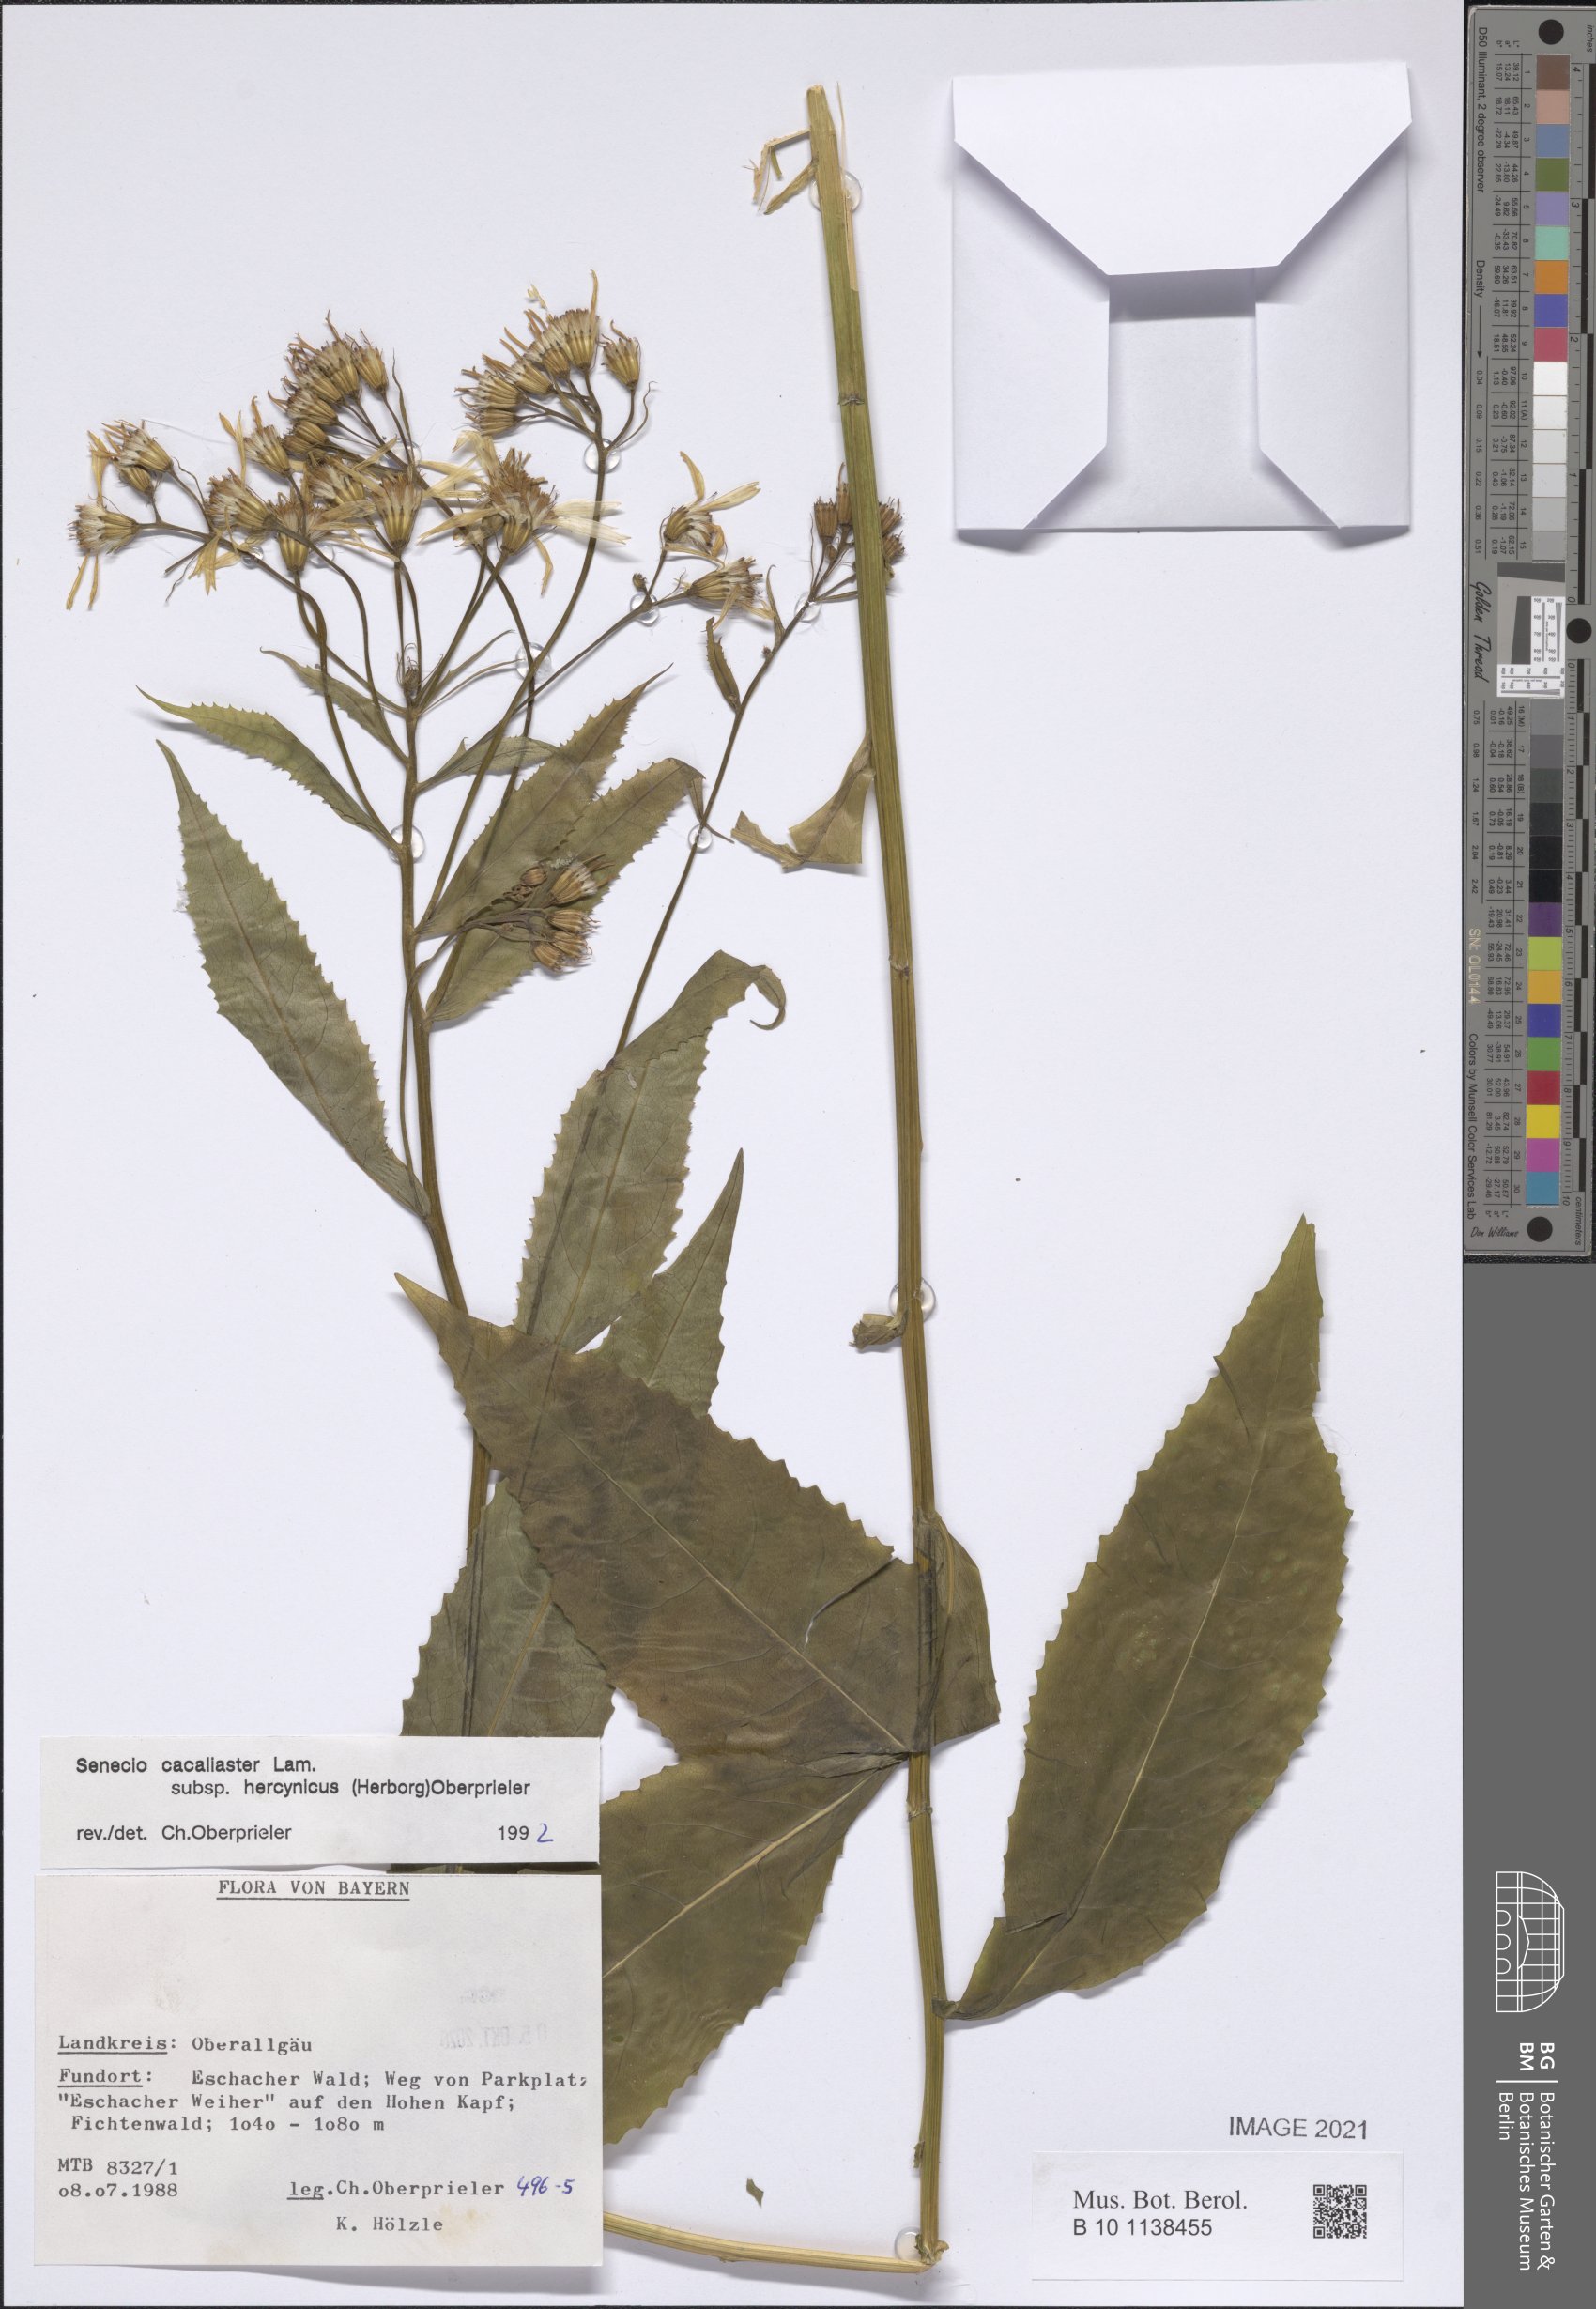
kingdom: Plantae
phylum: Tracheophyta
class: Magnoliopsida
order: Asterales
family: Asteraceae
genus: Senecio
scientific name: Senecio hercynicus
